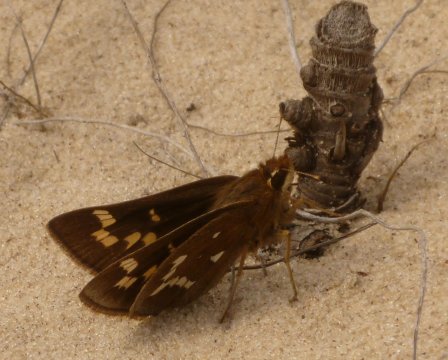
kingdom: Animalia
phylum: Arthropoda
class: Insecta
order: Lepidoptera
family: Hesperiidae
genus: Atrytonopsis
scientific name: Atrytonopsis quinteri
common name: Crystal Skipper
